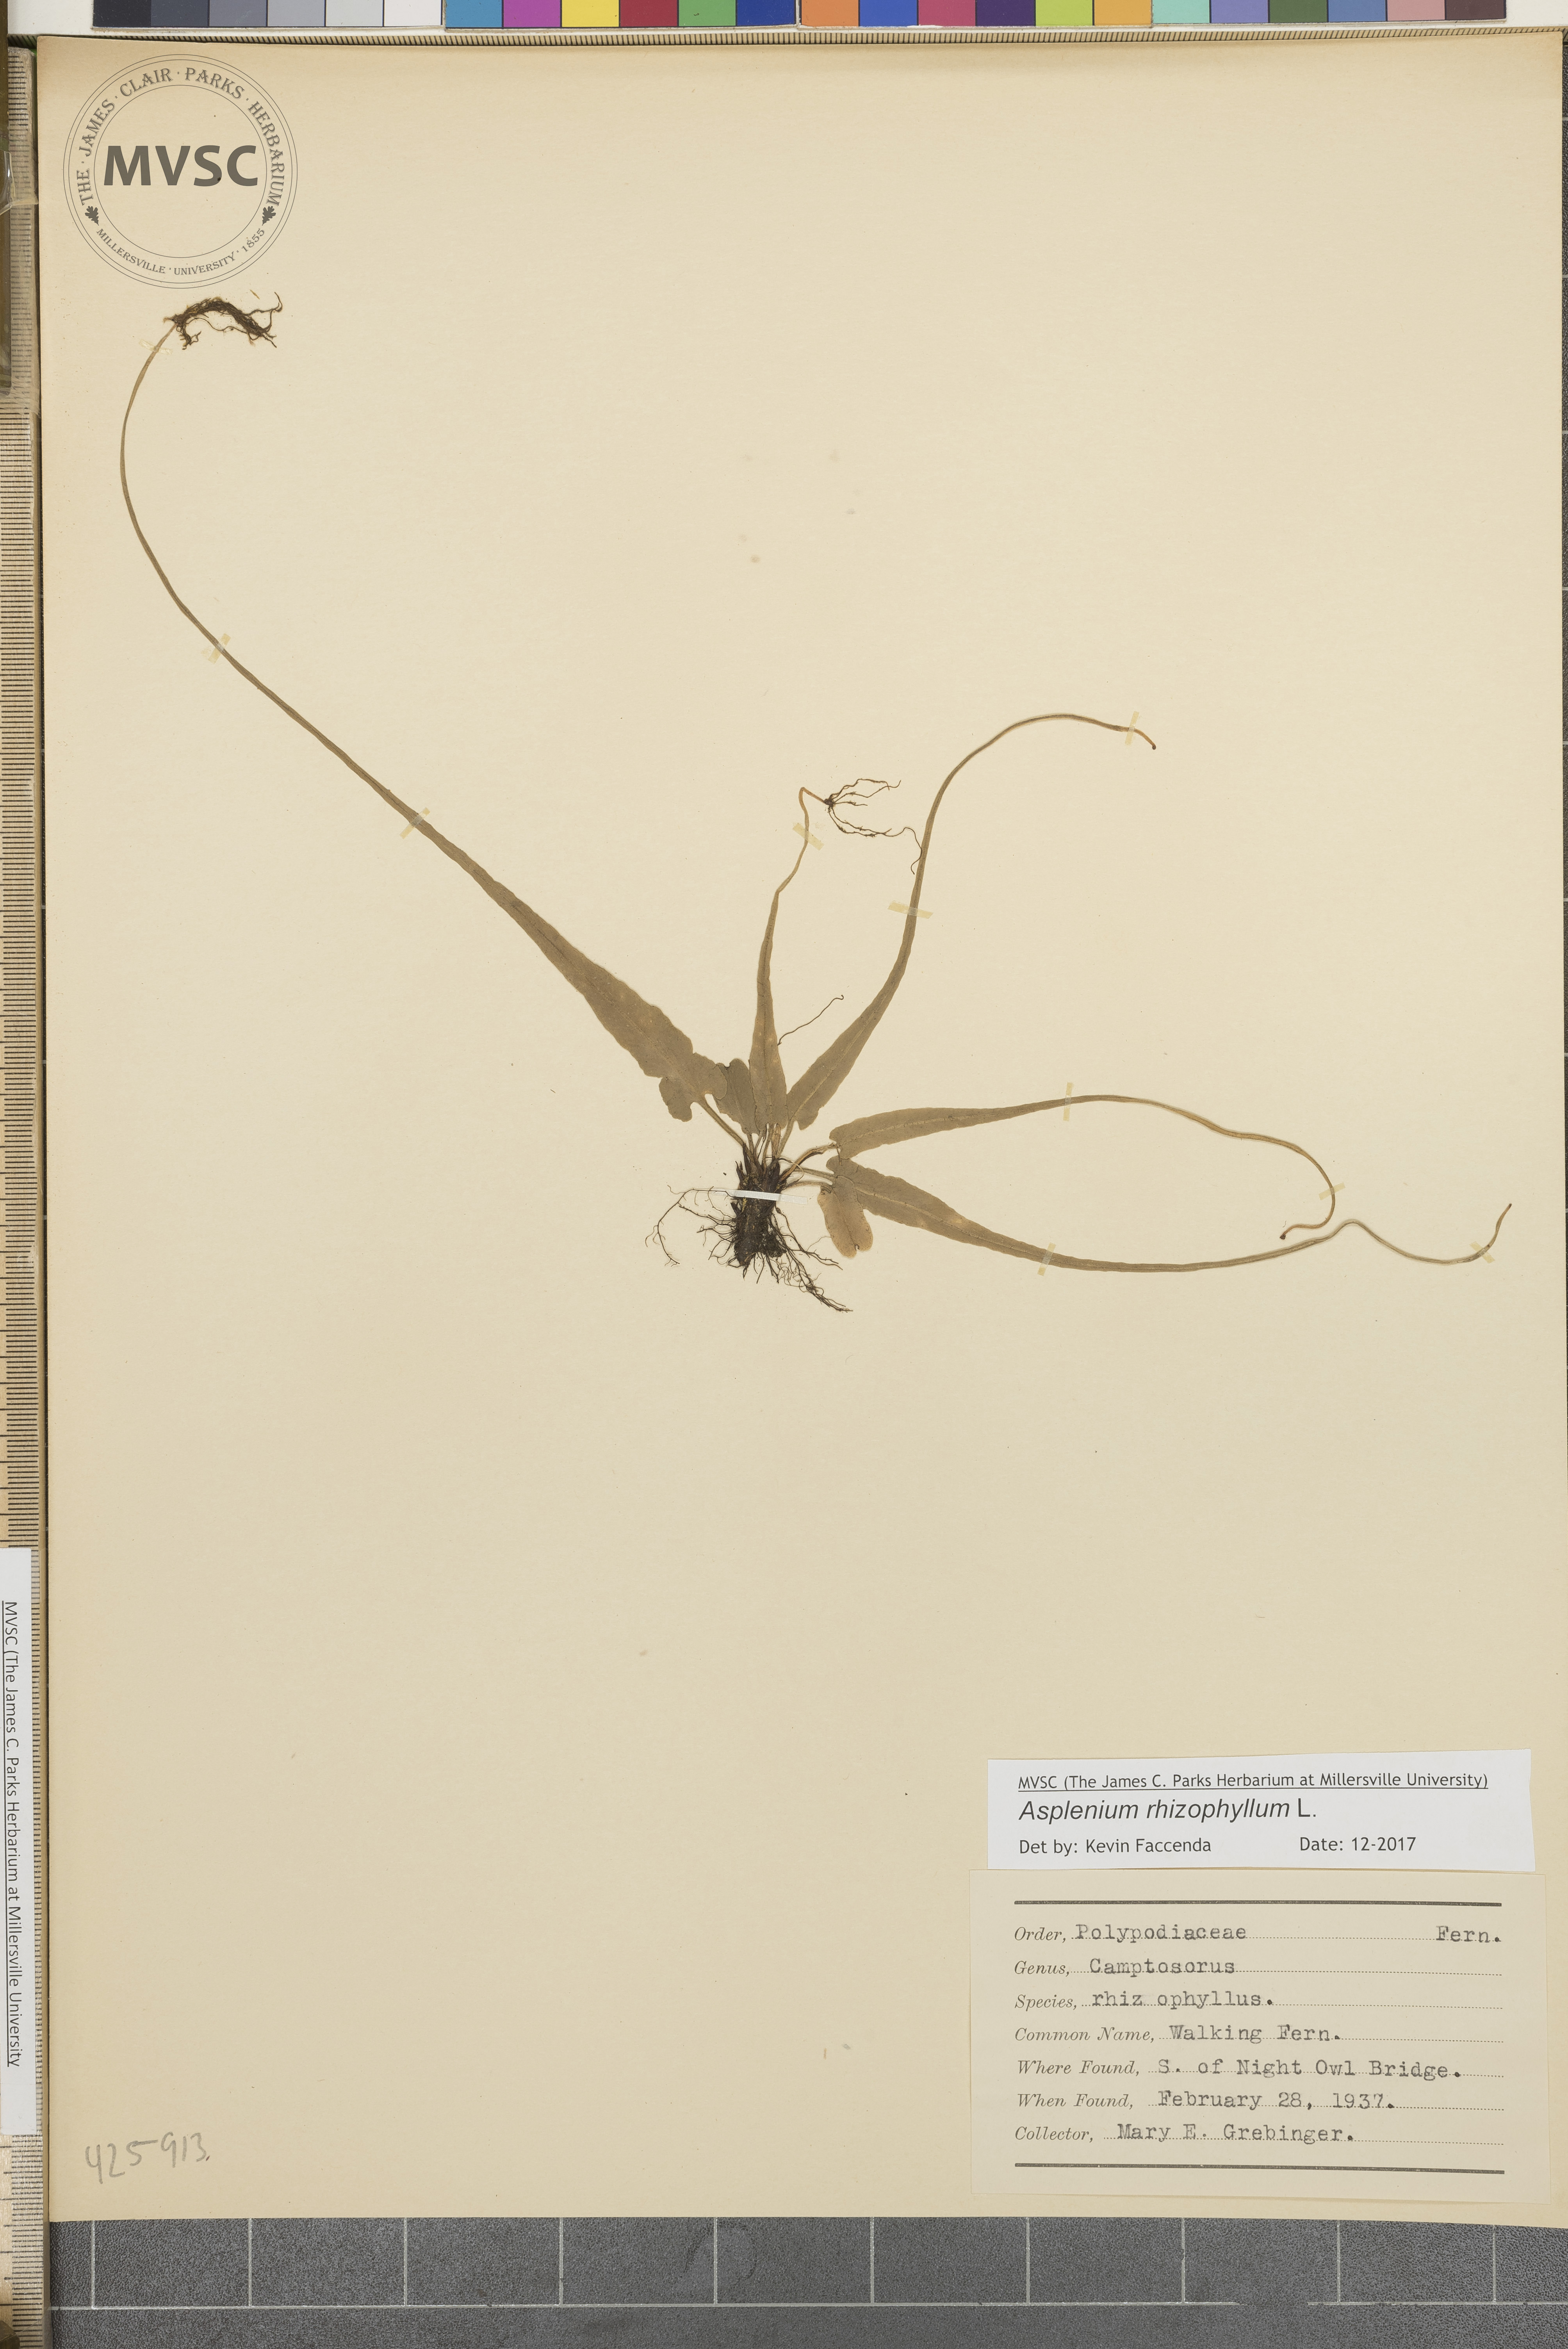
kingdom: Plantae
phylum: Tracheophyta
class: Polypodiopsida
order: Polypodiales
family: Aspleniaceae
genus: Asplenium
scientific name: Asplenium rhizophyllum
